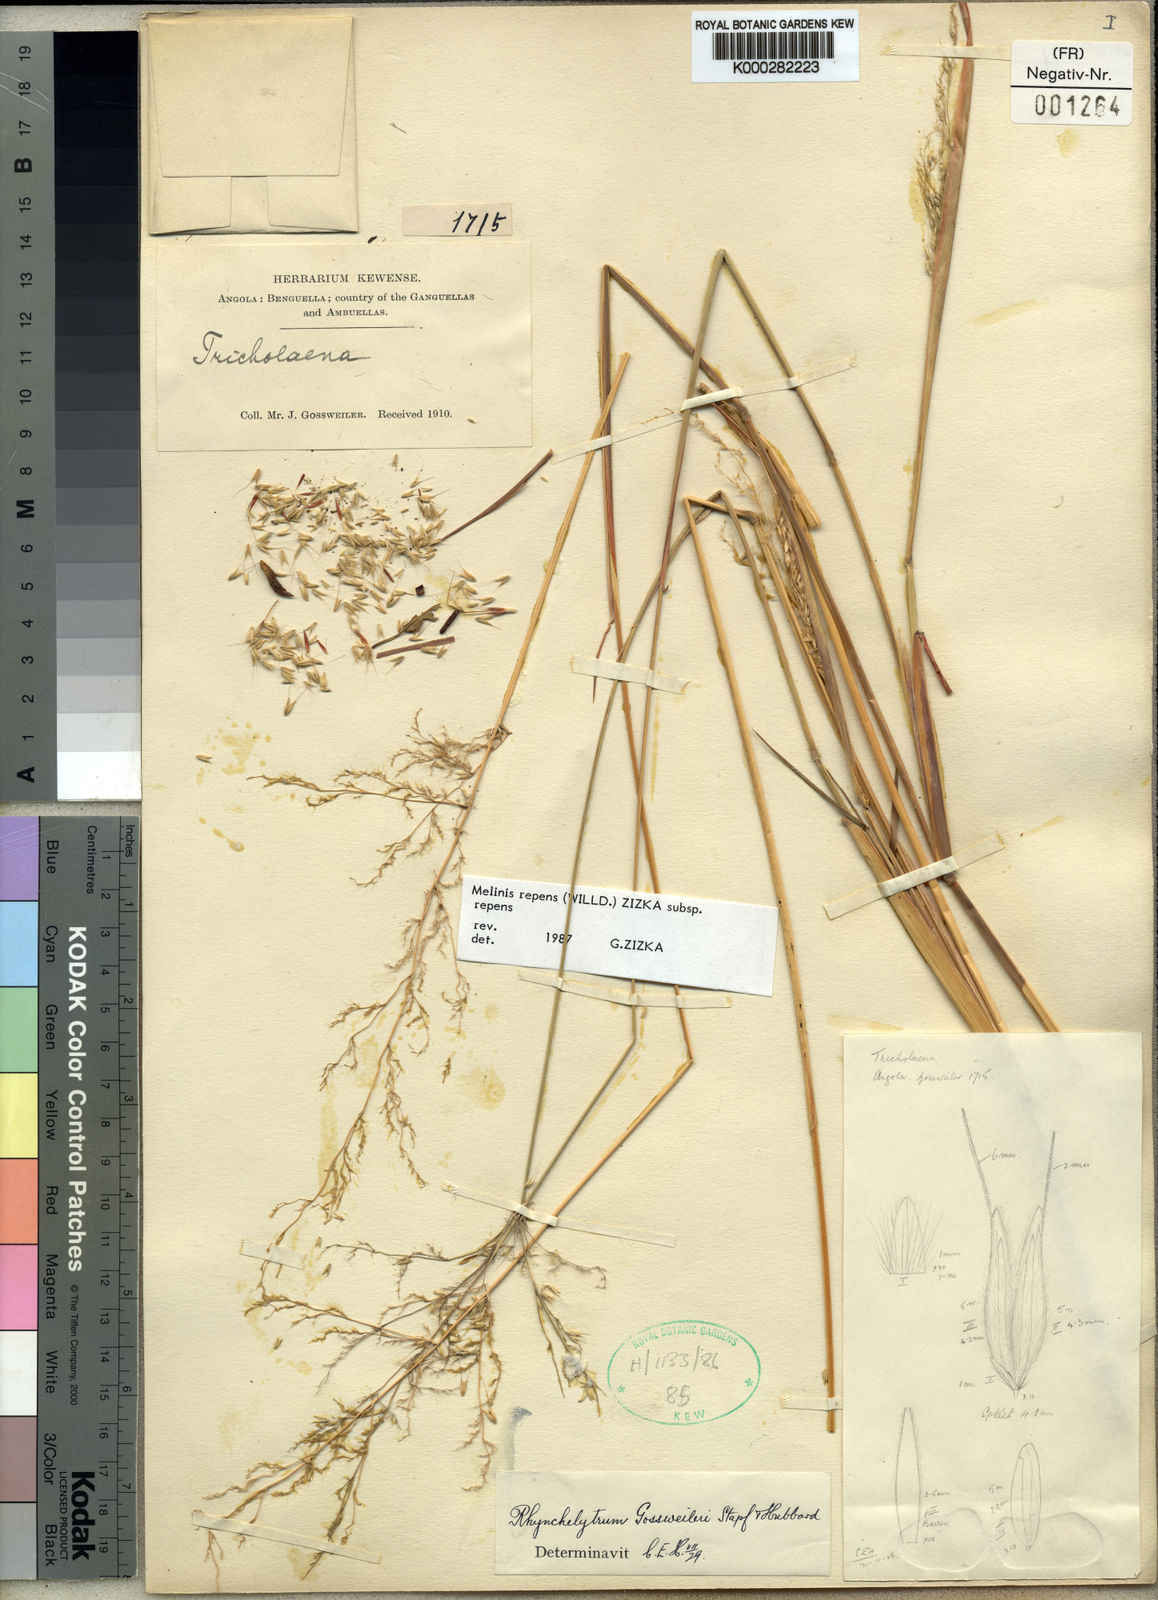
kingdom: Plantae
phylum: Tracheophyta
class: Liliopsida
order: Poales
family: Poaceae
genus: Melinis
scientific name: Melinis repens
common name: Rose natal grass
